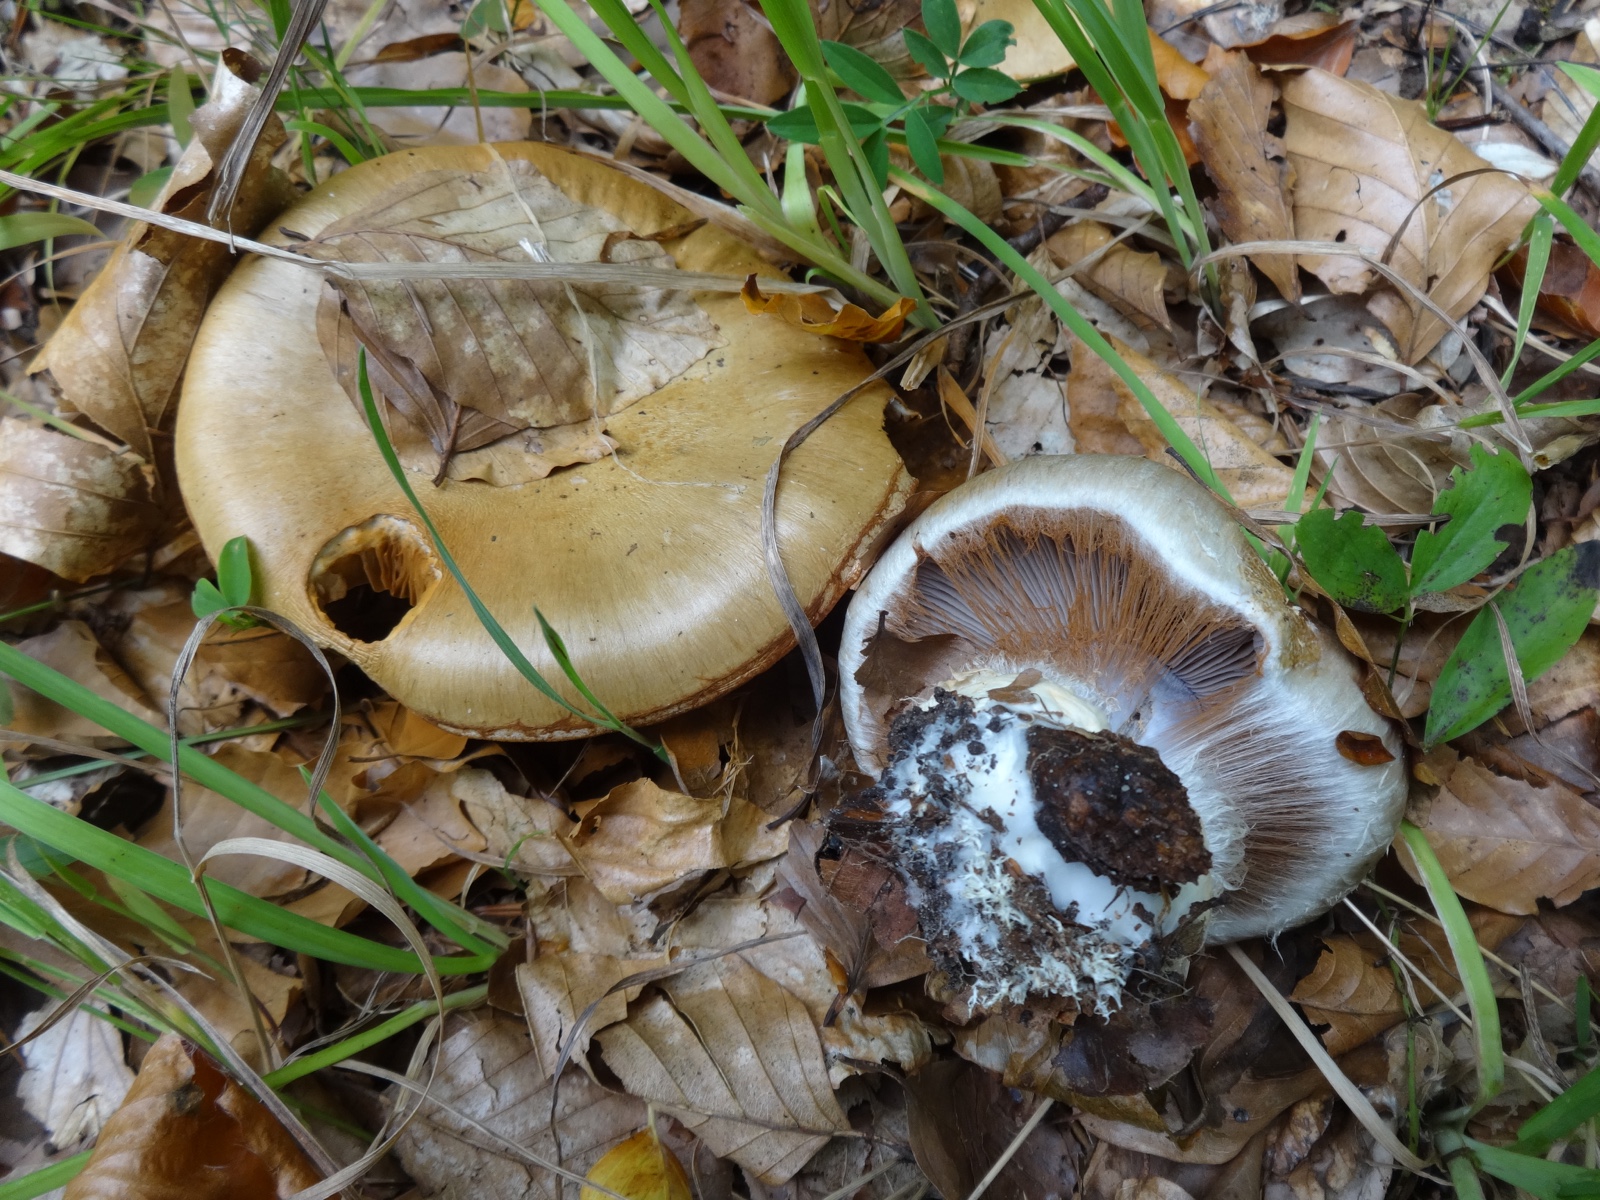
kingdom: Fungi
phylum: Basidiomycota
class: Agaricomycetes
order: Agaricales
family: Cortinariaceae
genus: Cortinarius
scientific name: Cortinarius anserinus
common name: bøge-slørhat
